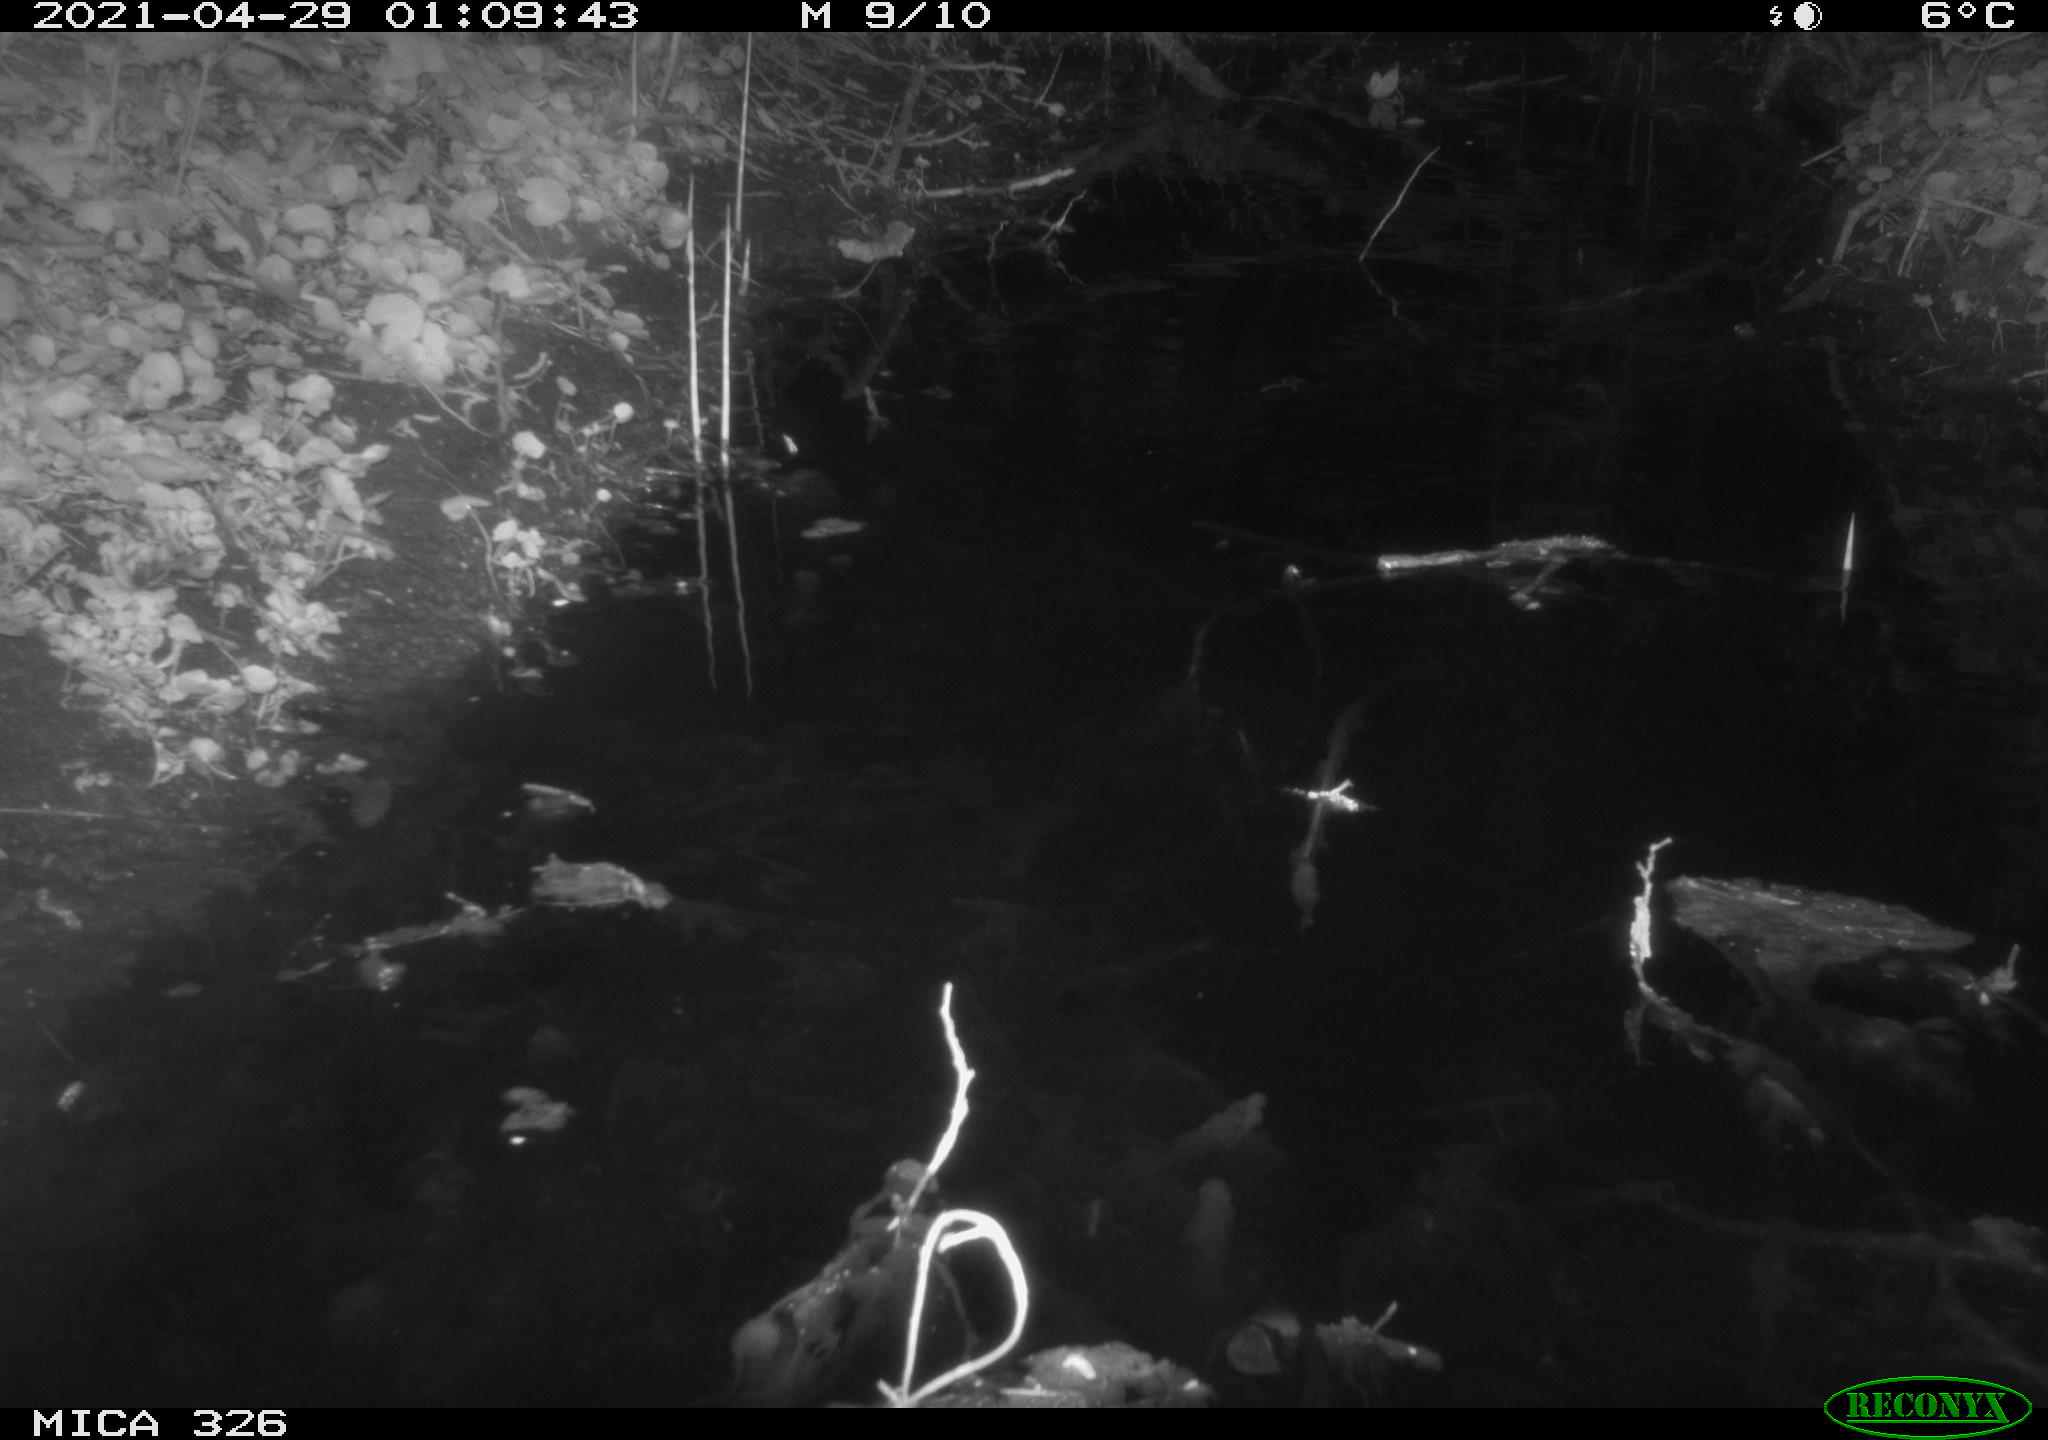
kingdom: Animalia
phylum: Chordata
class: Mammalia
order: Rodentia
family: Muridae
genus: Rattus
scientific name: Rattus norvegicus
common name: Brown rat
